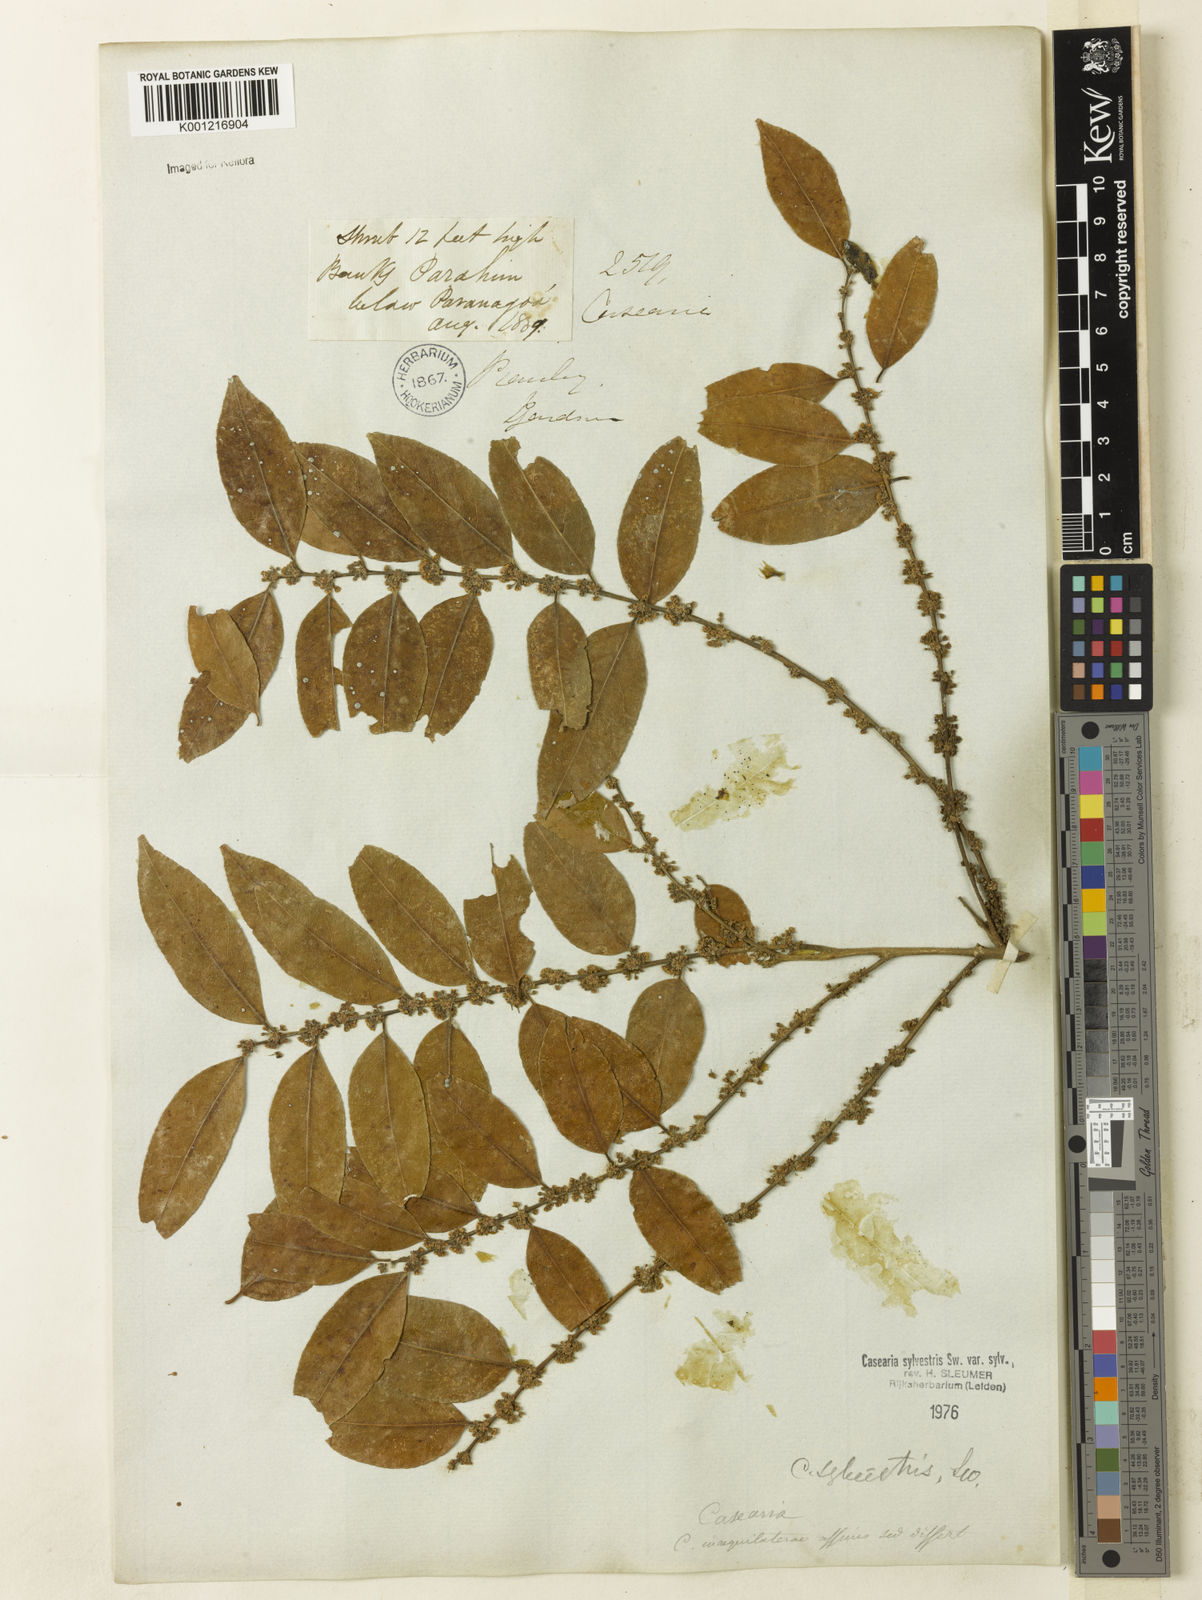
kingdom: Plantae
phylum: Tracheophyta
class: Magnoliopsida
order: Malpighiales
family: Salicaceae
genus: Casearia
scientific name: Casearia sylvestris
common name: Wild sage
